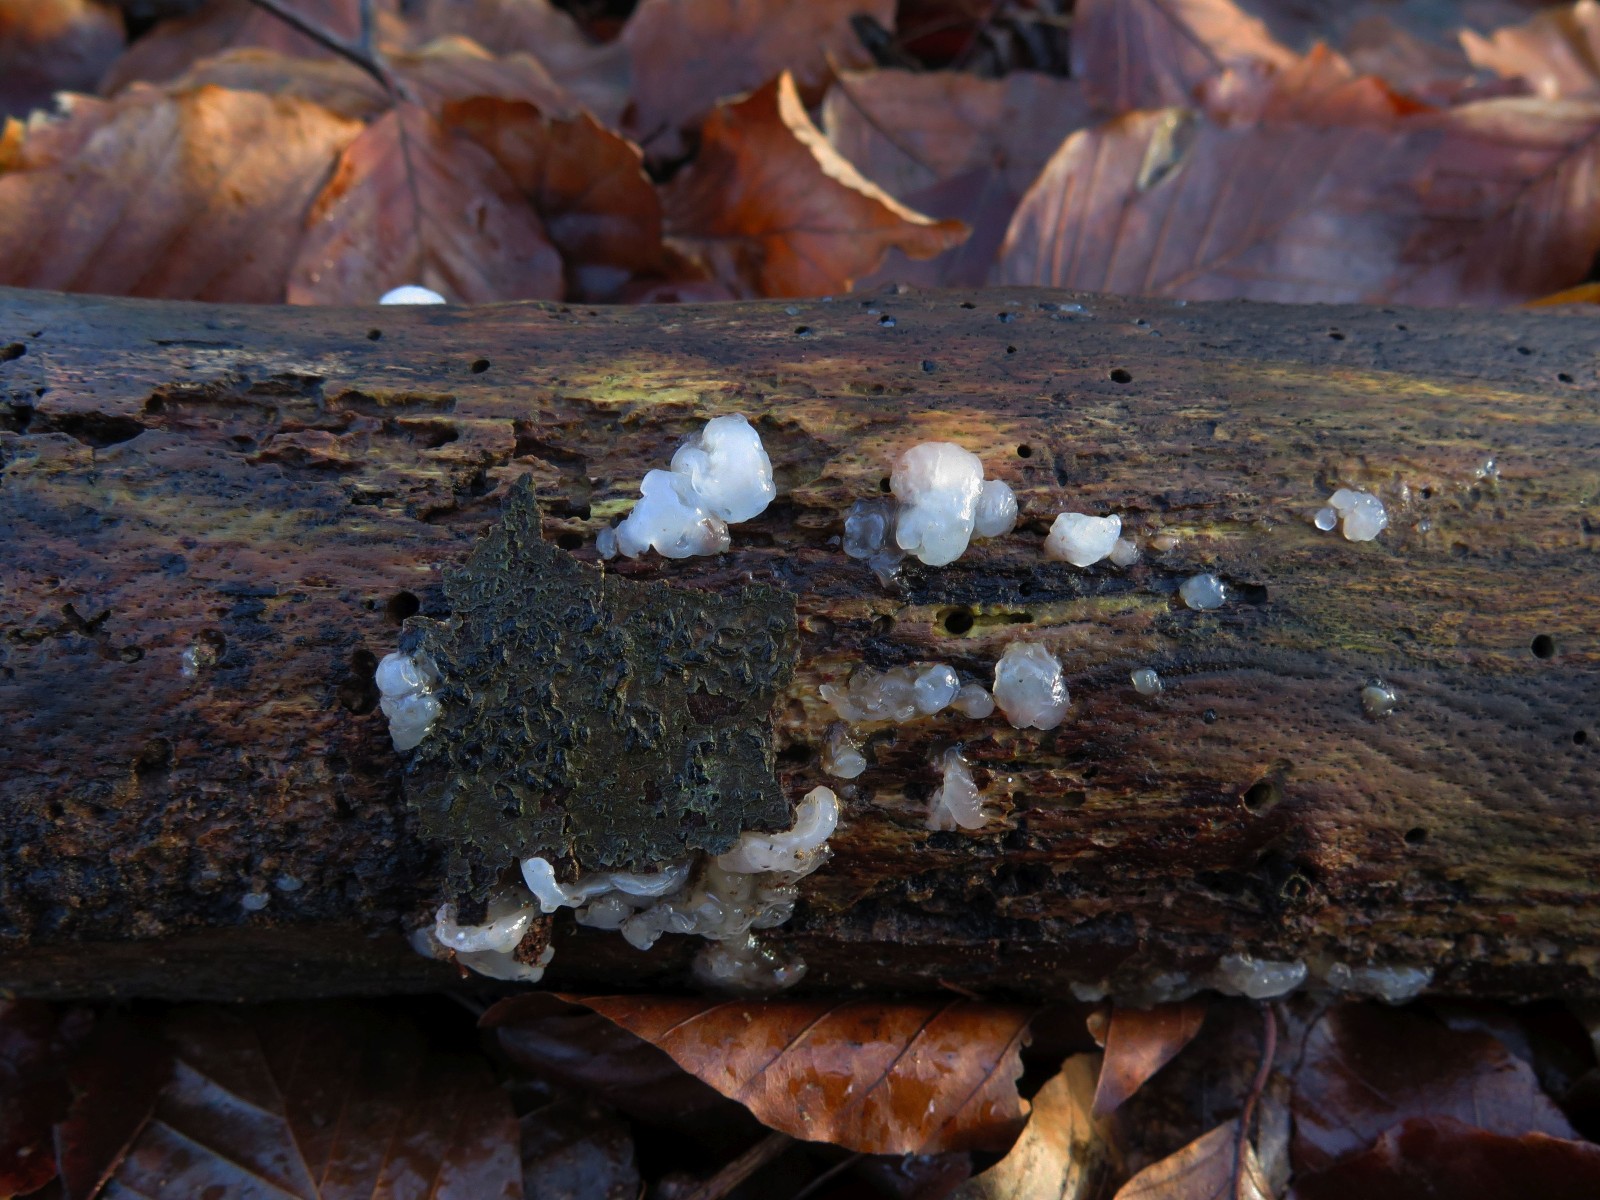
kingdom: Fungi
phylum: Basidiomycota
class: Agaricomycetes
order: Auriculariales
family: Hyaloriaceae
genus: Myxarium
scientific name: Myxarium nucleatum
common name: klar bævretop
